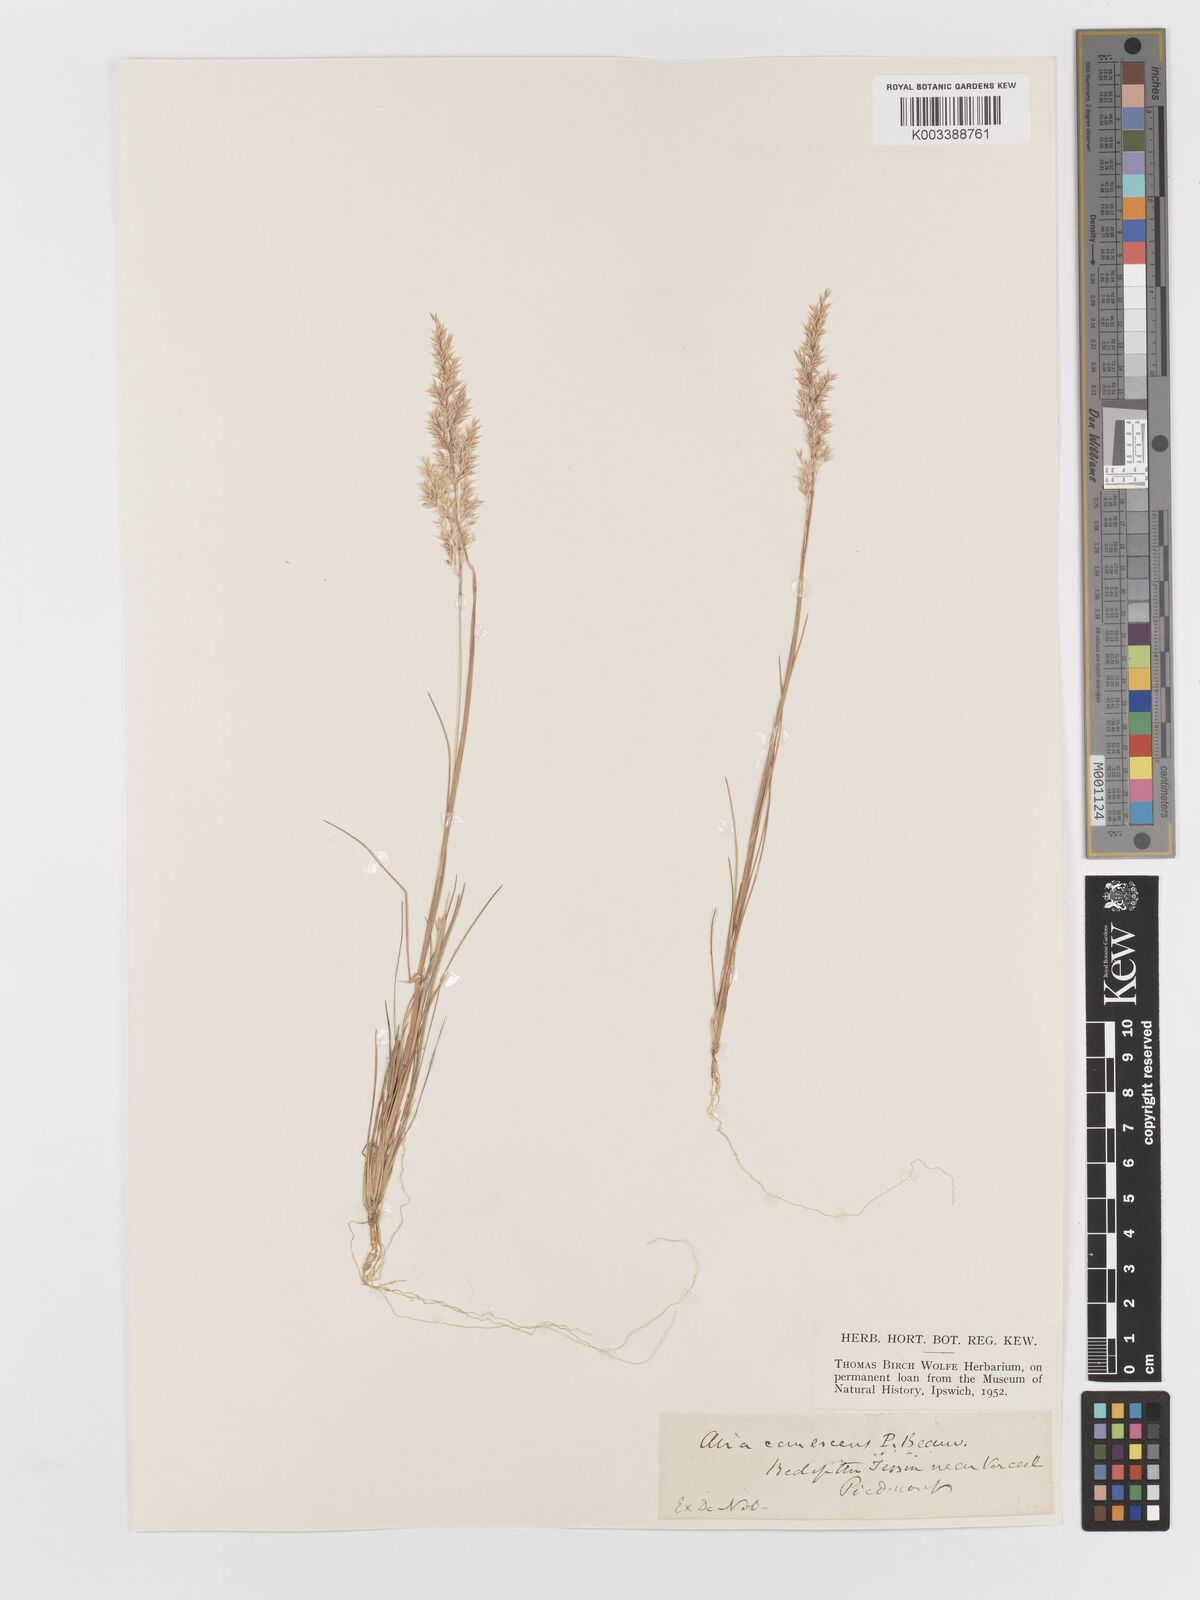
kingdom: Plantae
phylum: Tracheophyta
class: Liliopsida
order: Poales
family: Poaceae
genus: Corynephorus
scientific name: Corynephorus canescens
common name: Grey hair-grass
